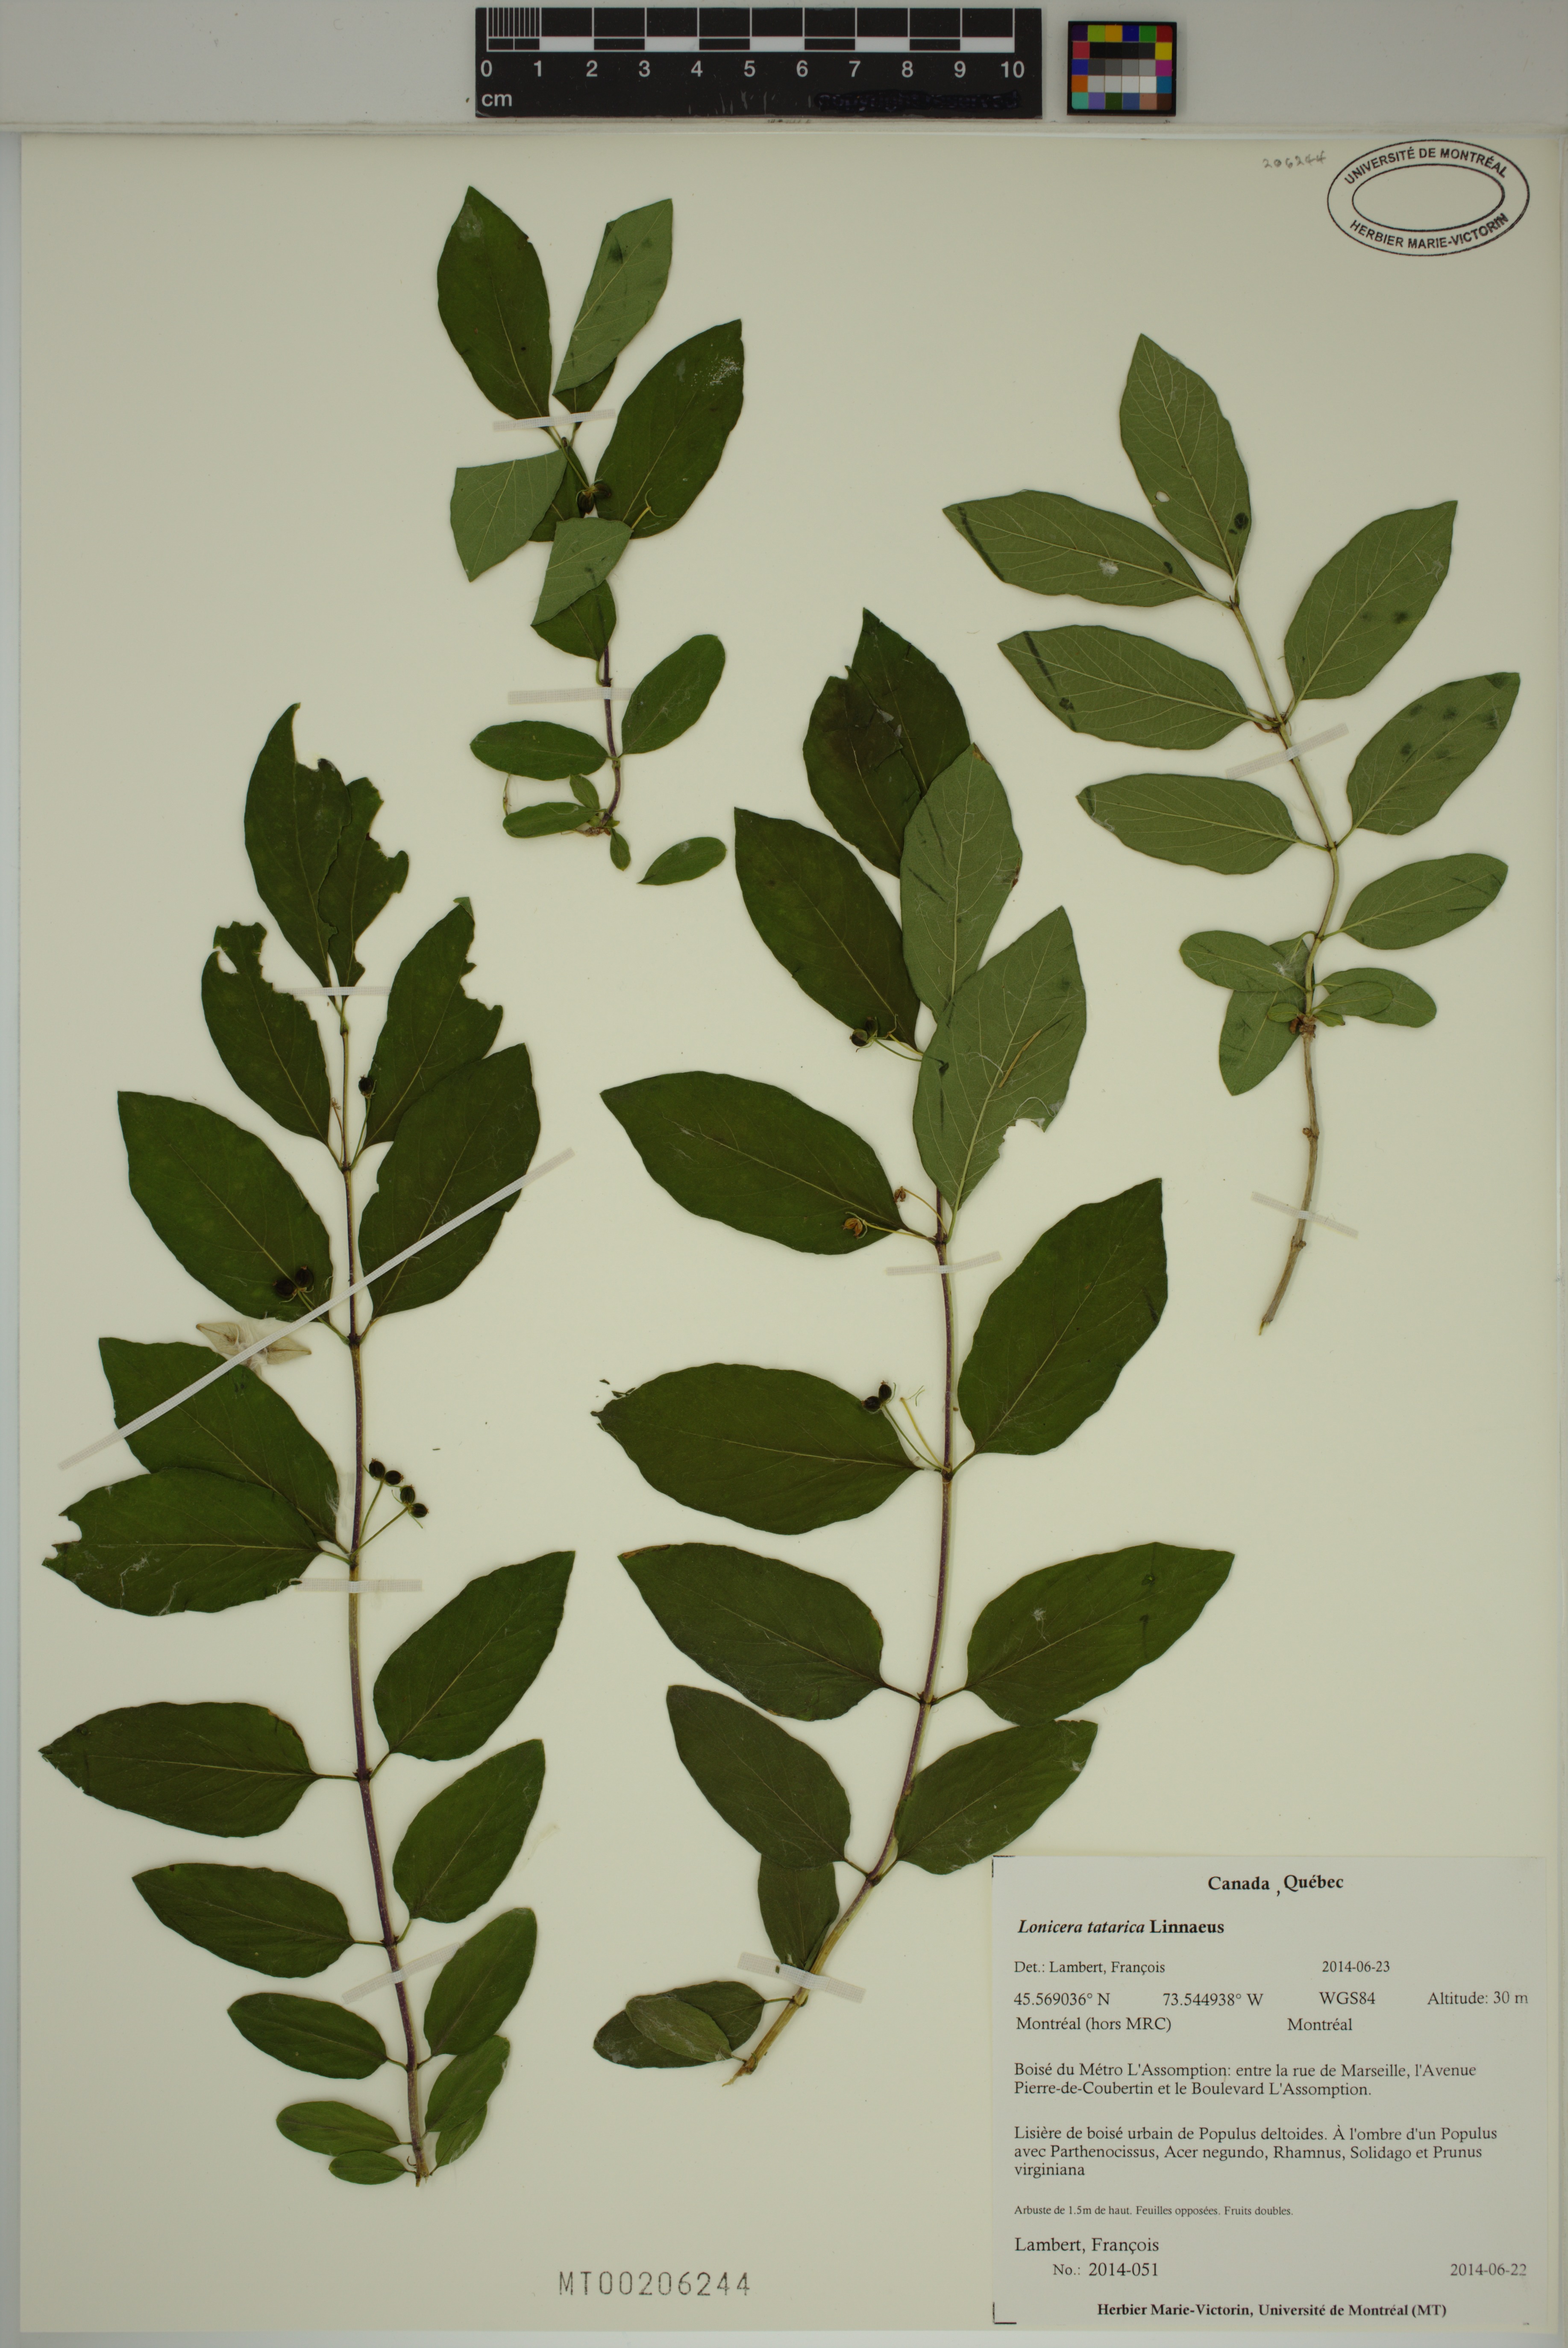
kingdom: Plantae
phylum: Tracheophyta
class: Magnoliopsida
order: Dipsacales
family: Caprifoliaceae
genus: Lonicera
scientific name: Lonicera tatarica
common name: Tatarian honeysuckle
